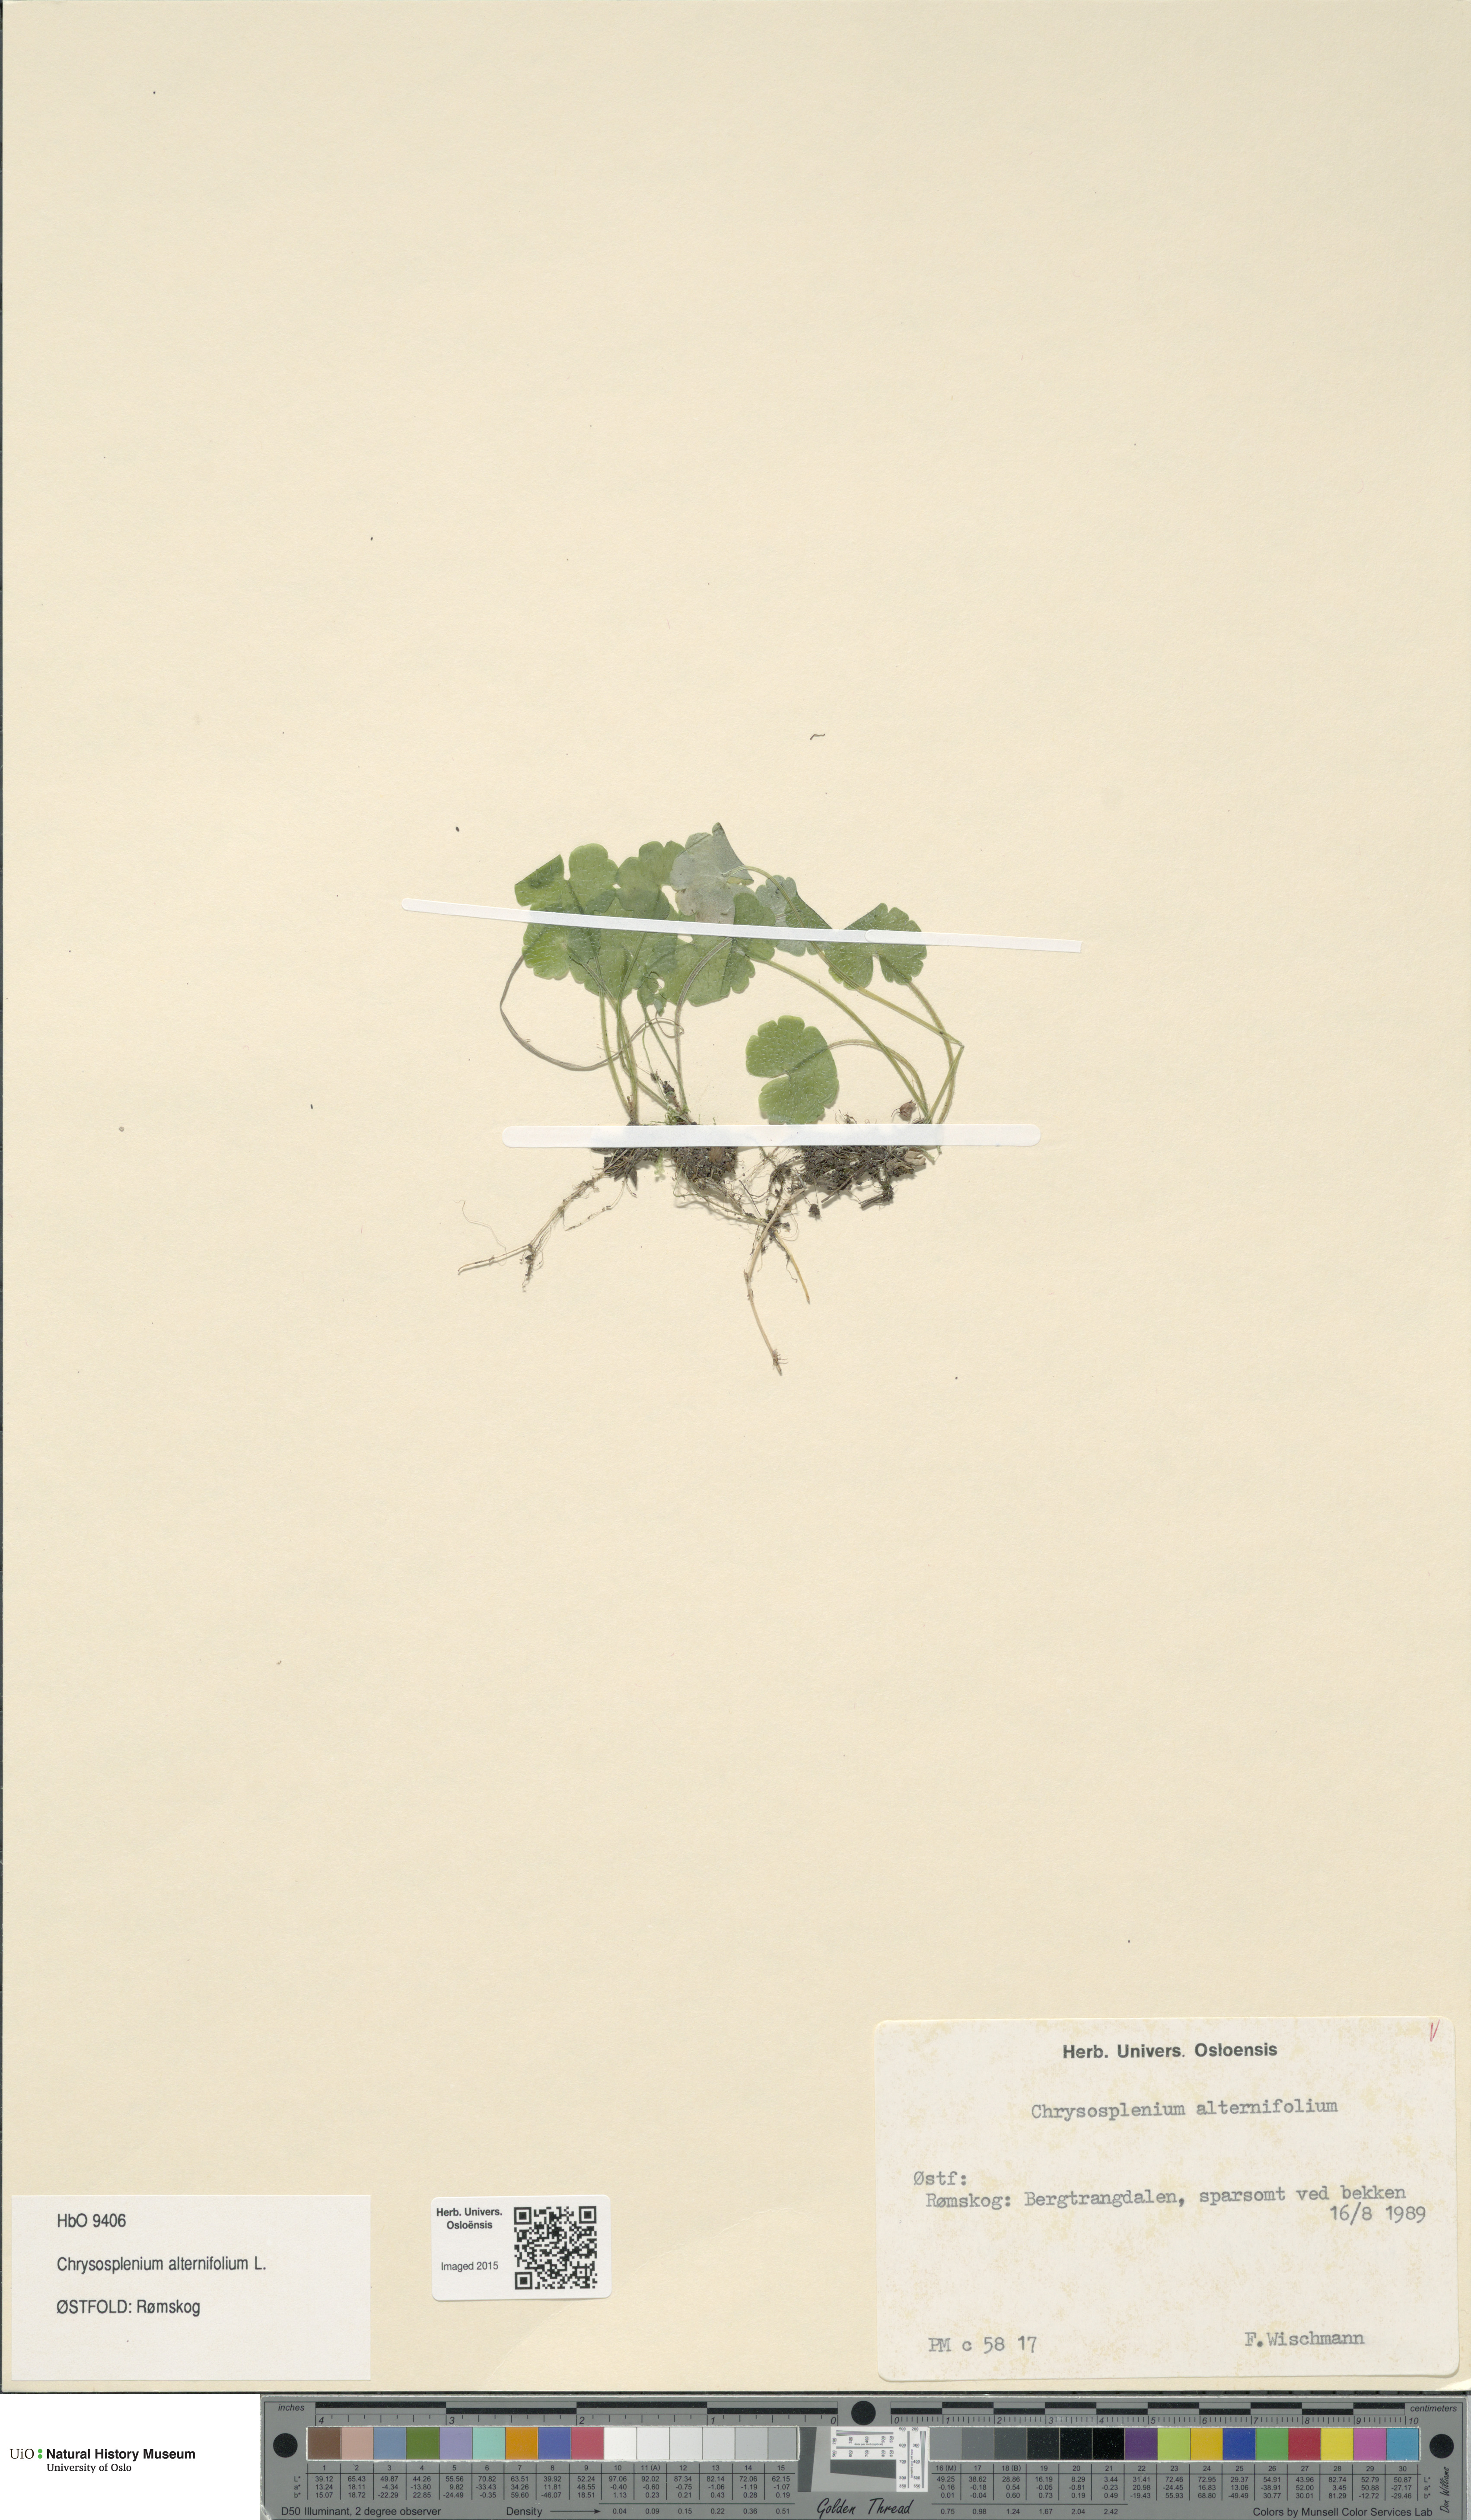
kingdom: Plantae
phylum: Tracheophyta
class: Magnoliopsida
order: Saxifragales
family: Saxifragaceae
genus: Chrysosplenium
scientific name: Chrysosplenium alternifolium
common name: Alternate-leaved golden-saxifrage
